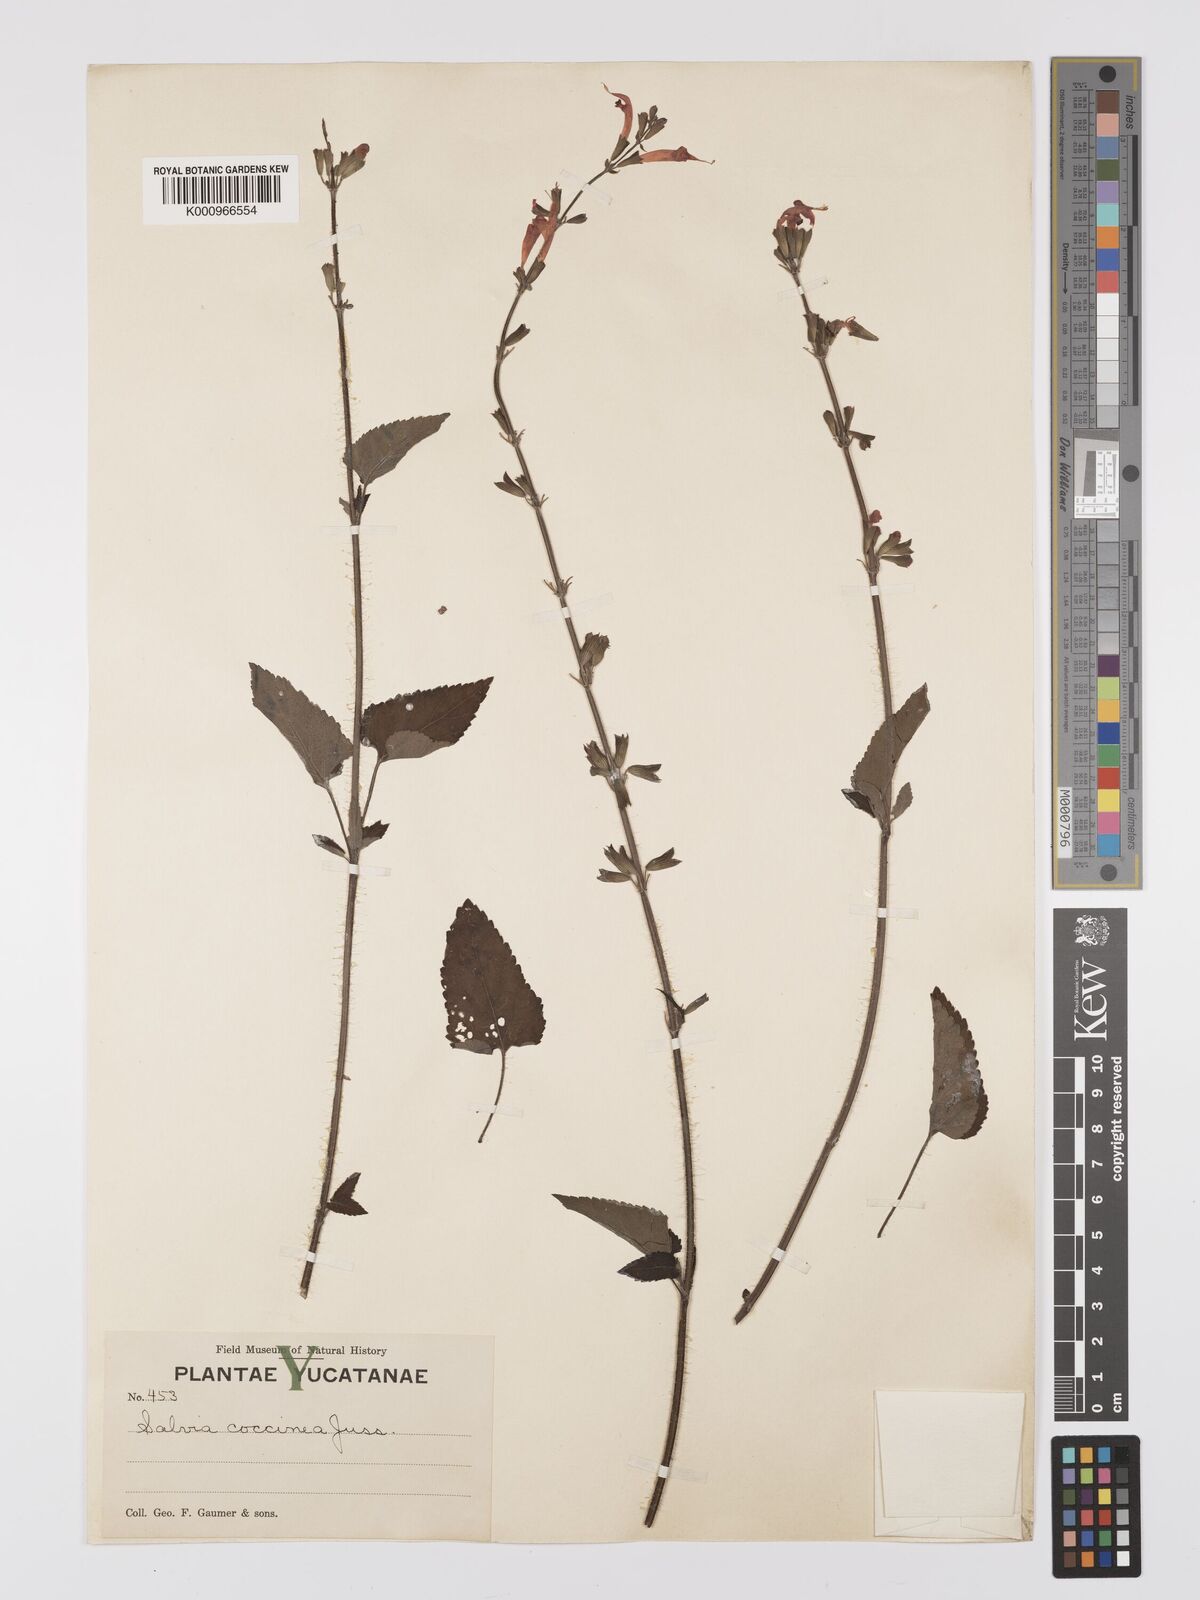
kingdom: Plantae
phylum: Tracheophyta
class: Magnoliopsida
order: Lamiales
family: Lamiaceae
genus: Salvia
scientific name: Salvia
